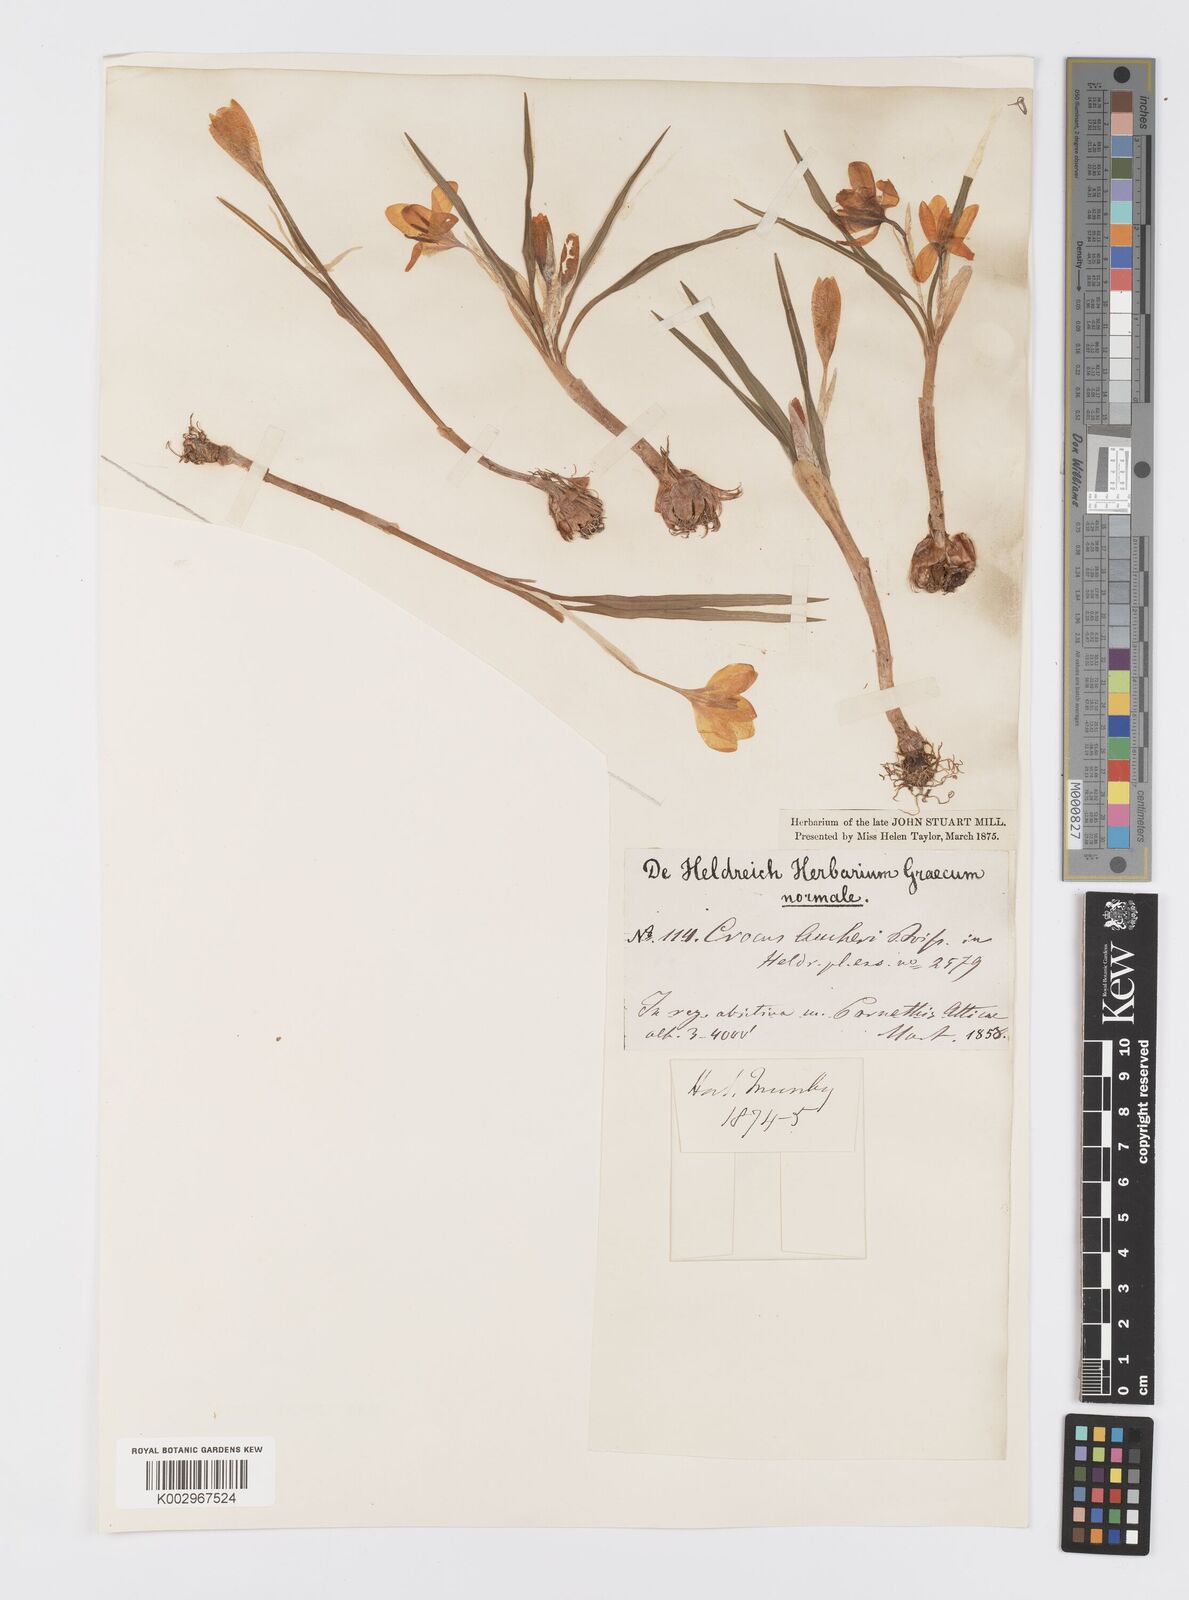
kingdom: Plantae
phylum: Tracheophyta
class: Liliopsida
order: Asparagales
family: Iridaceae
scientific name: Iridaceae
